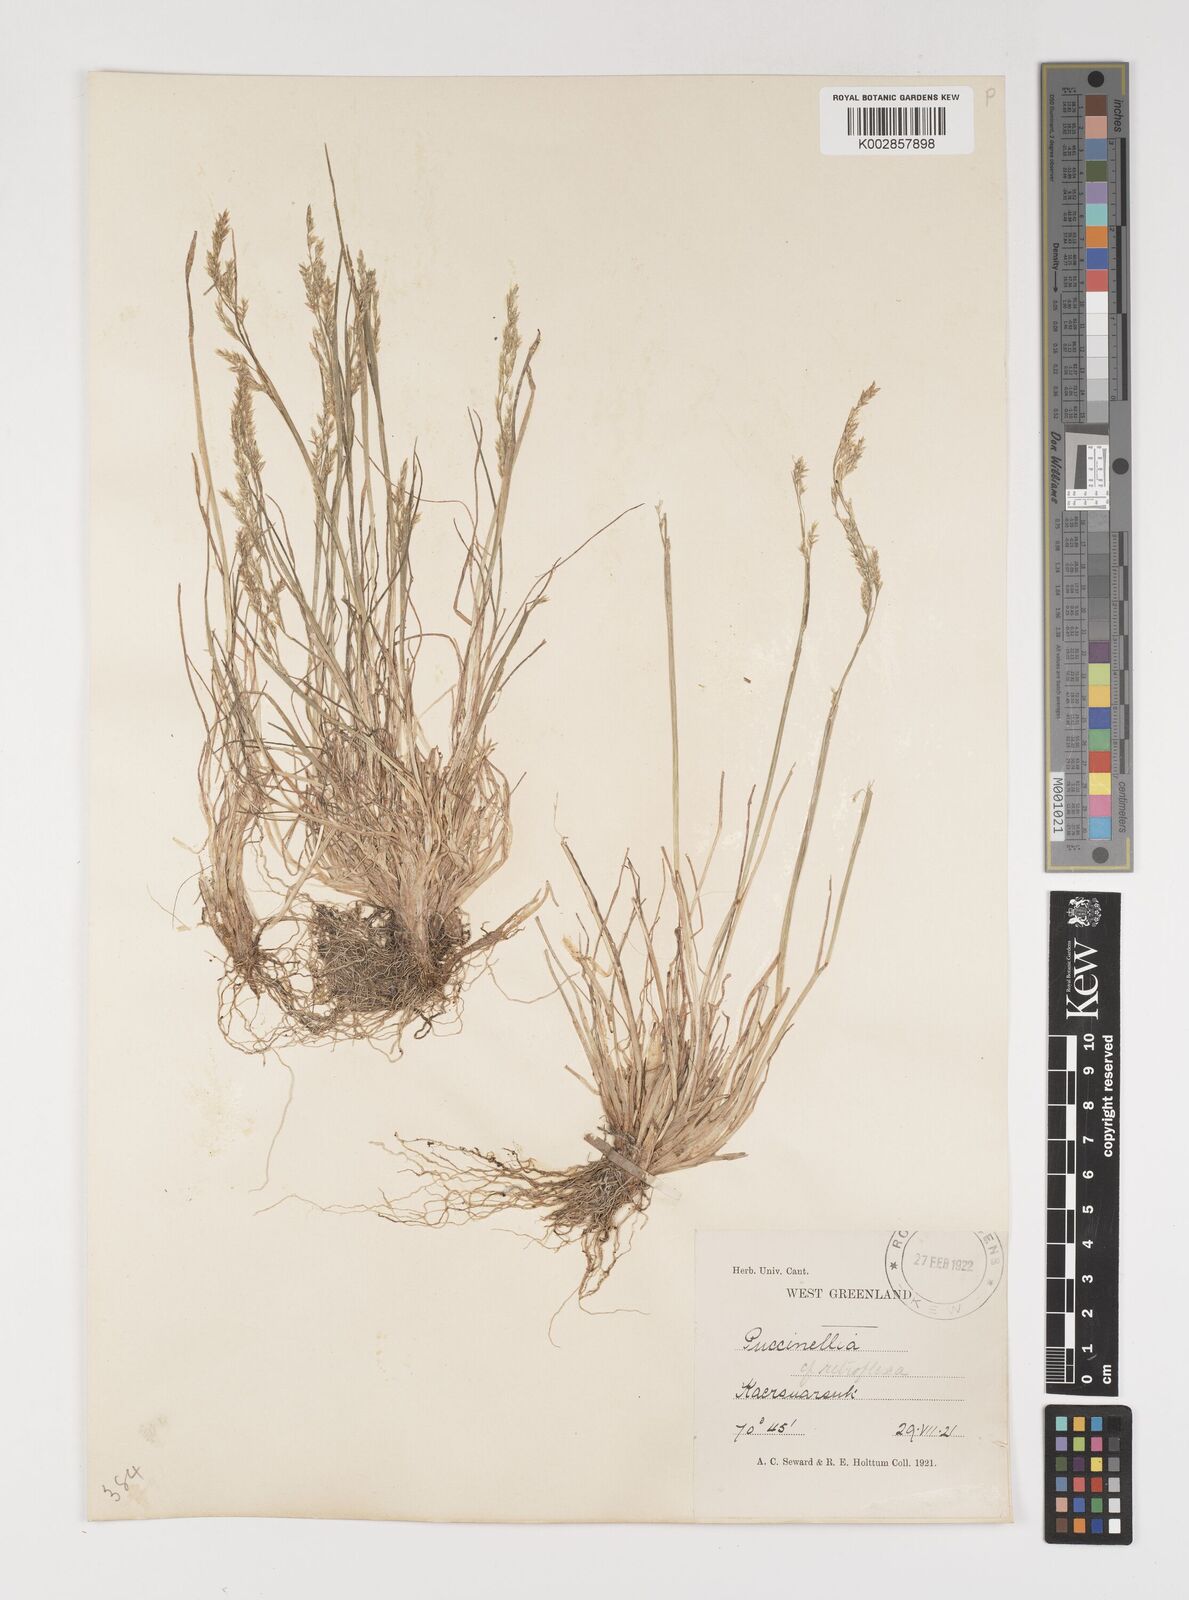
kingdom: Plantae
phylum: Tracheophyta
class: Liliopsida
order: Poales
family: Poaceae
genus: Puccinellia
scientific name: Puccinellia
